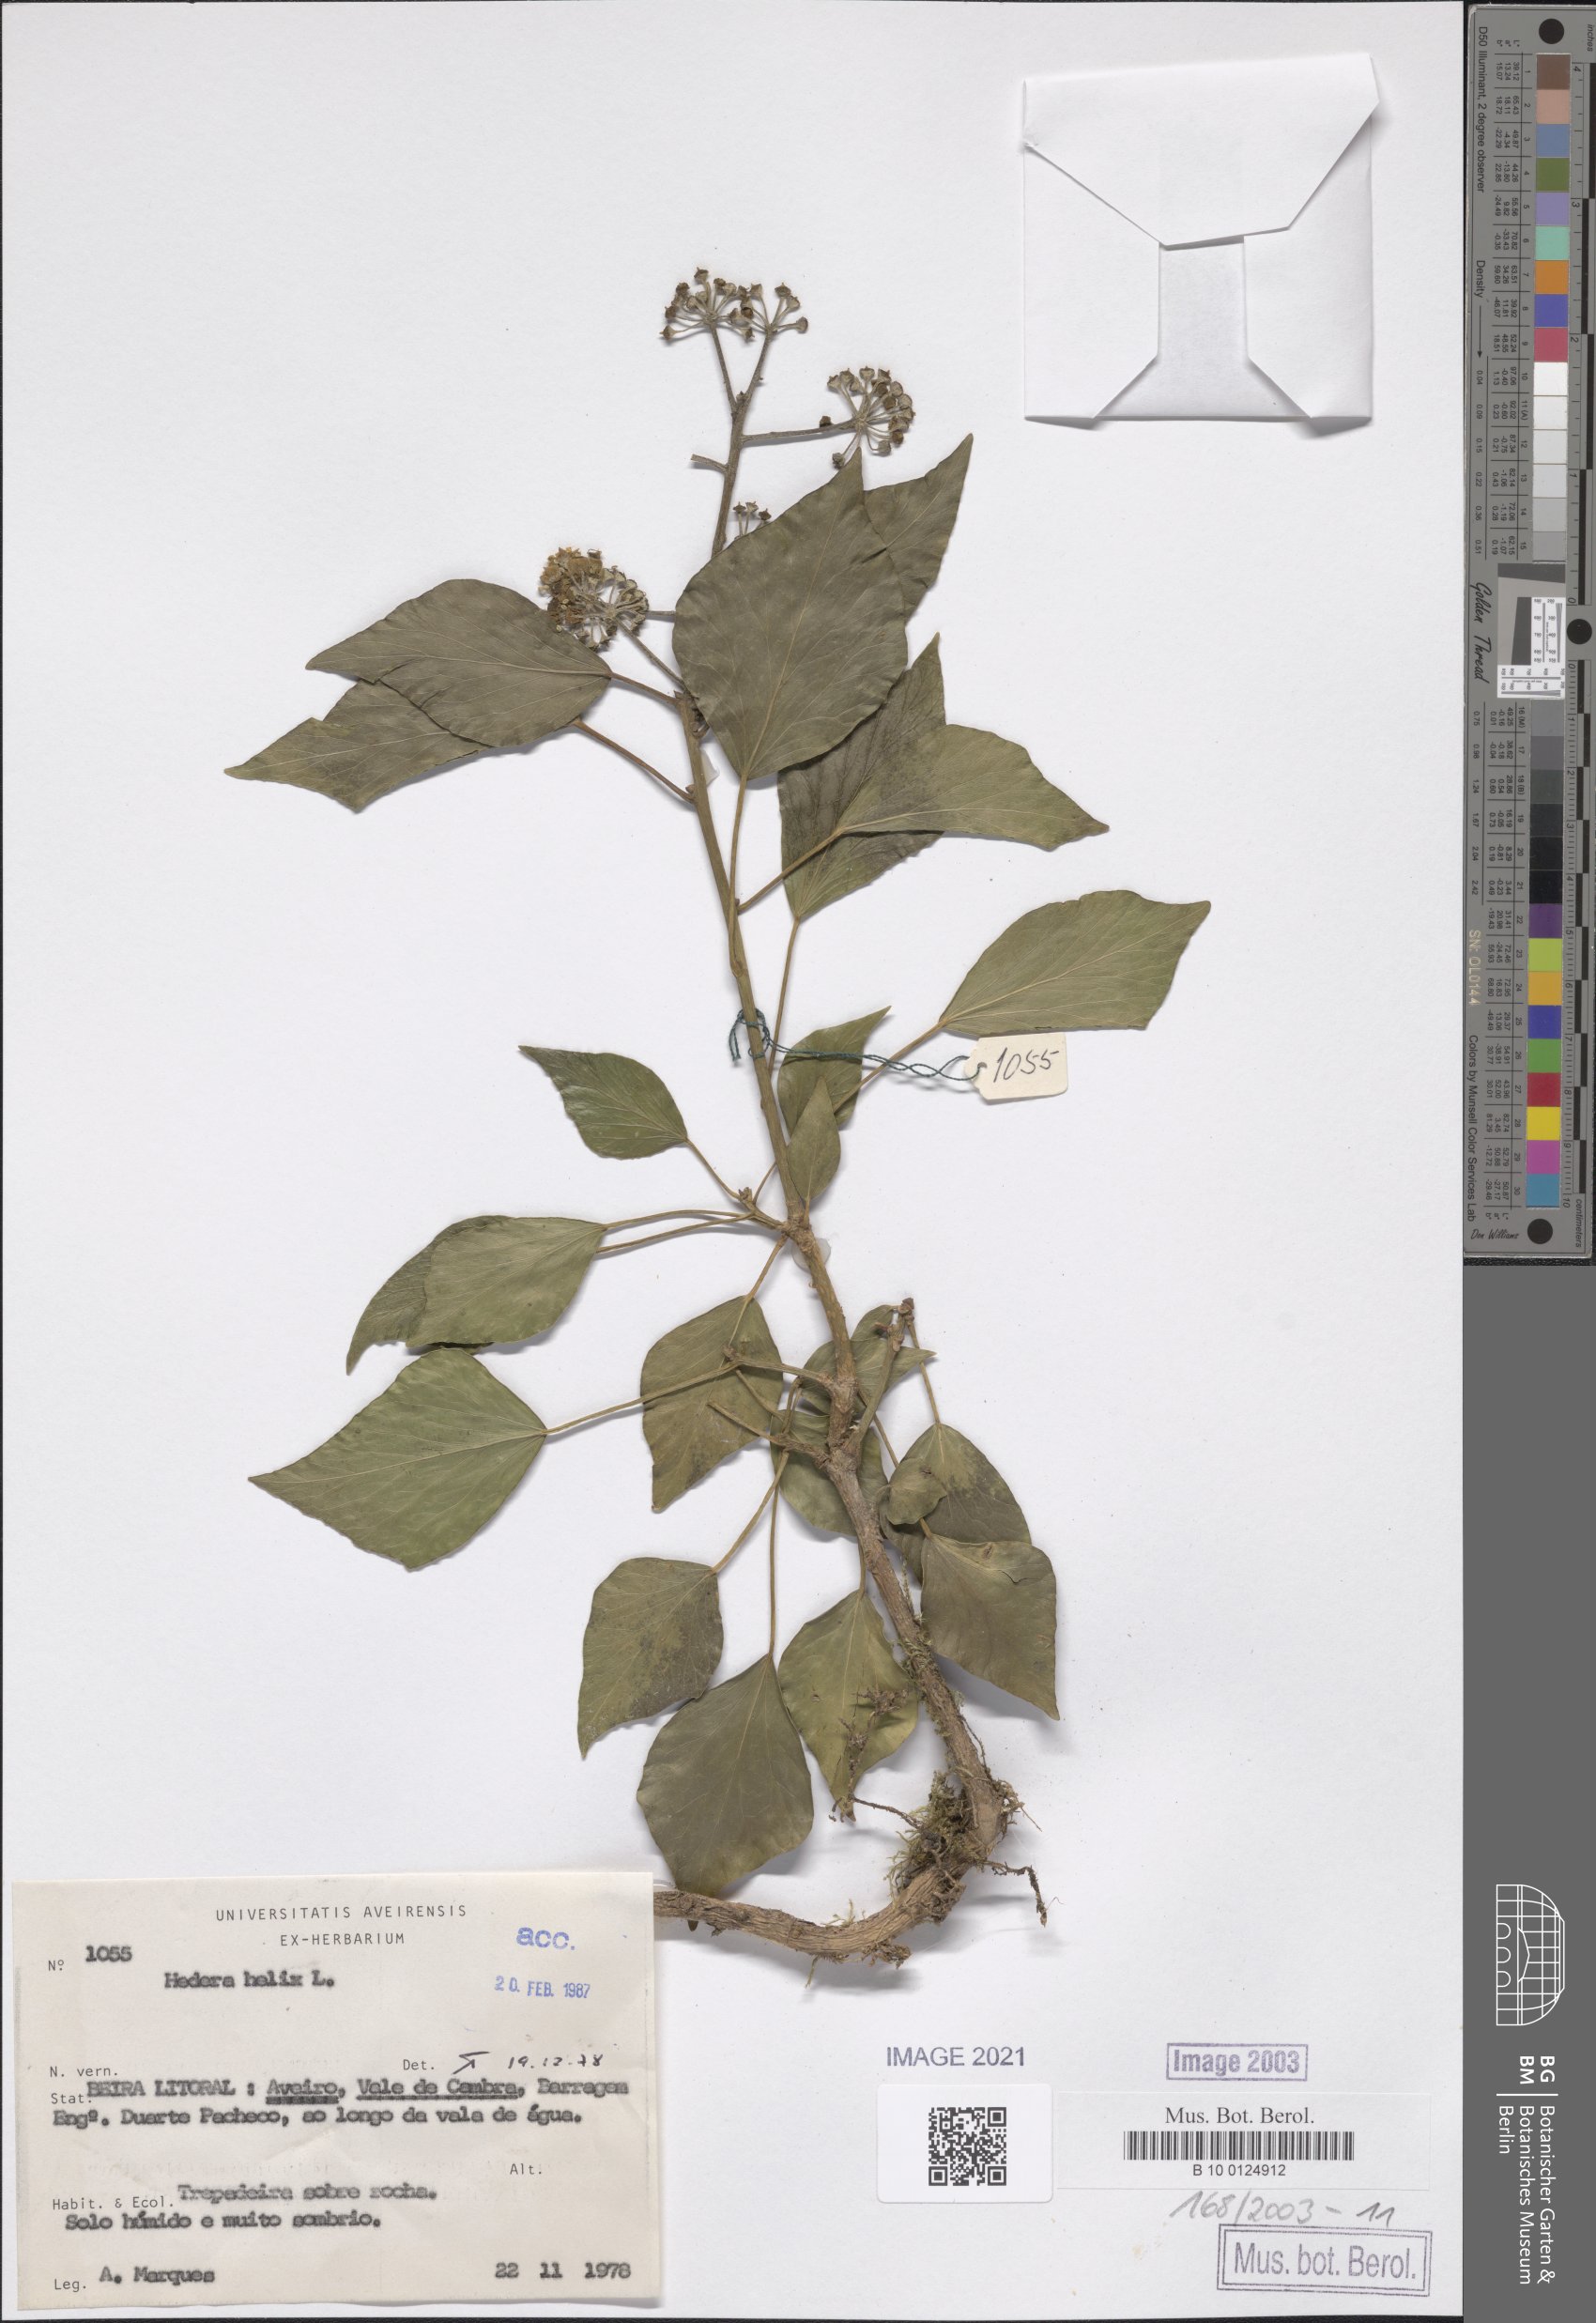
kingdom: Plantae
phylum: Tracheophyta
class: Magnoliopsida
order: Apiales
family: Araliaceae
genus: Hedera
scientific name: Hedera helix
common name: Ivy
